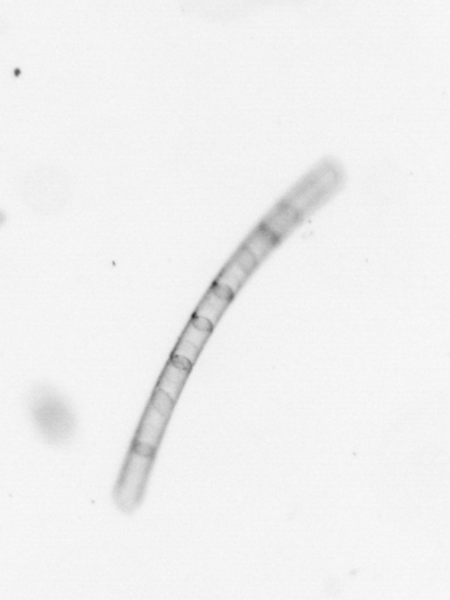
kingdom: Chromista
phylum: Ochrophyta
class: Bacillariophyceae
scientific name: Bacillariophyceae
